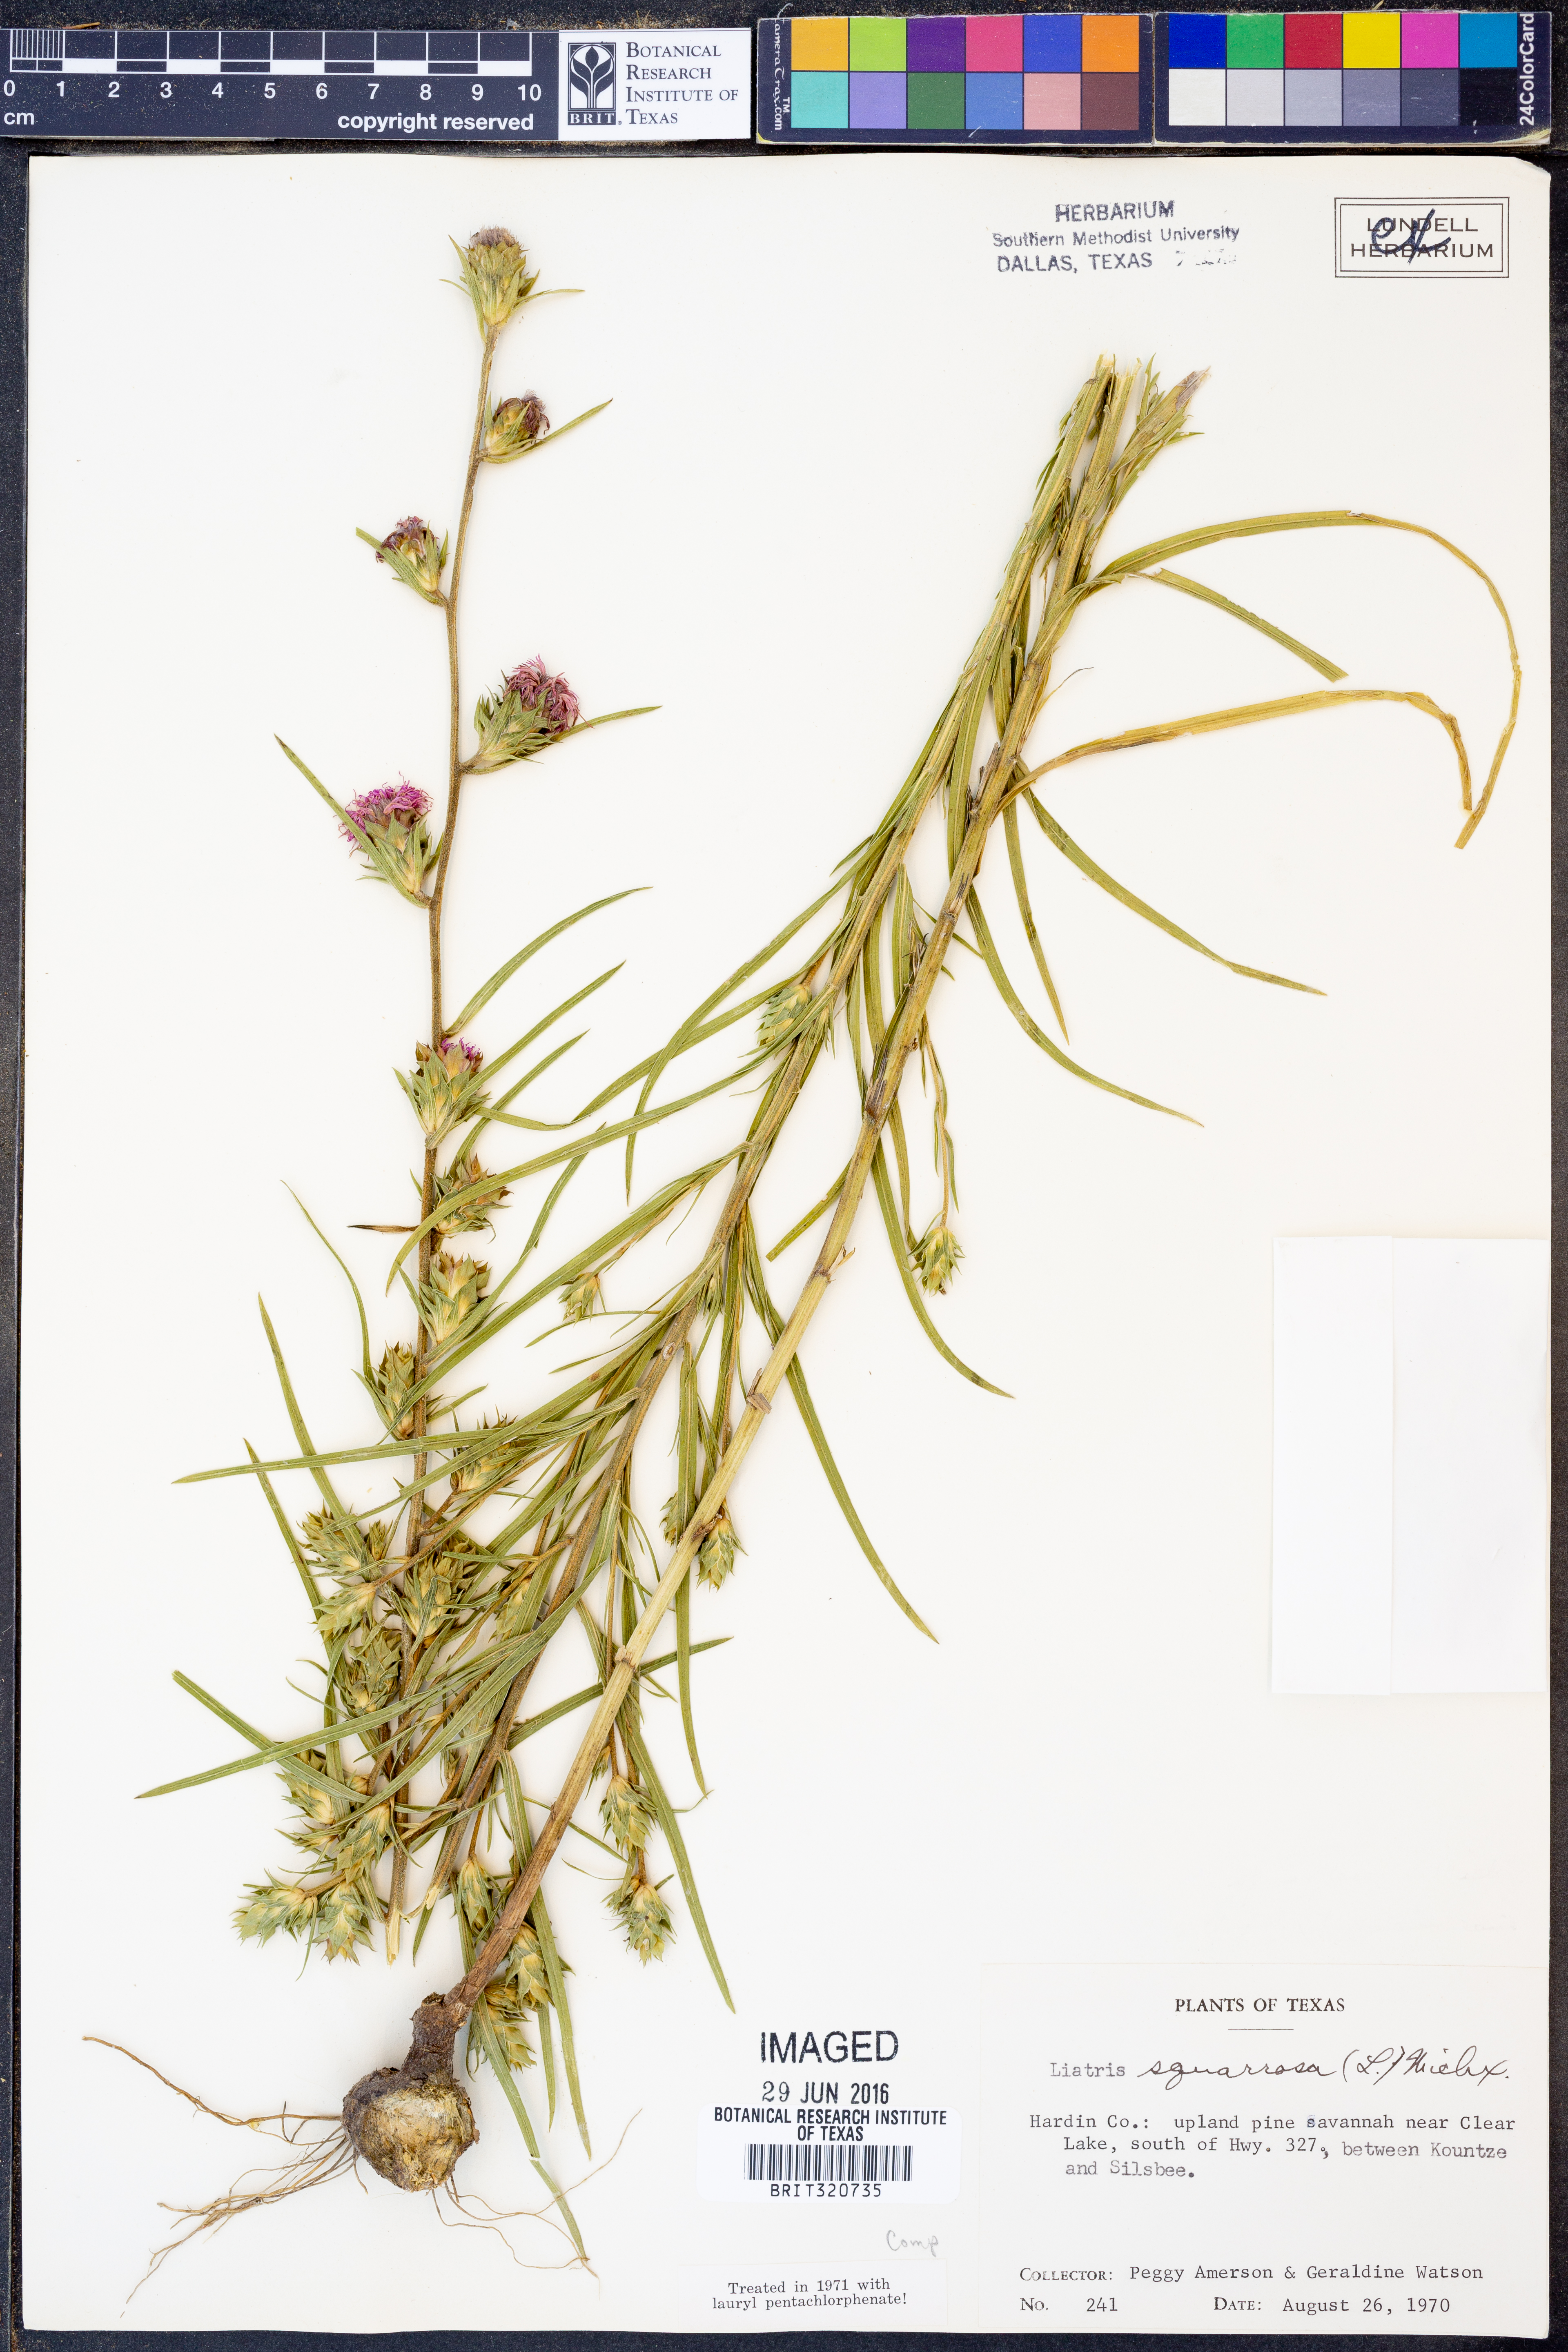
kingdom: Plantae
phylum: Tracheophyta
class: Magnoliopsida
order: Asterales
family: Asteraceae
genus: Liatris
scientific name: Liatris squarrosa
